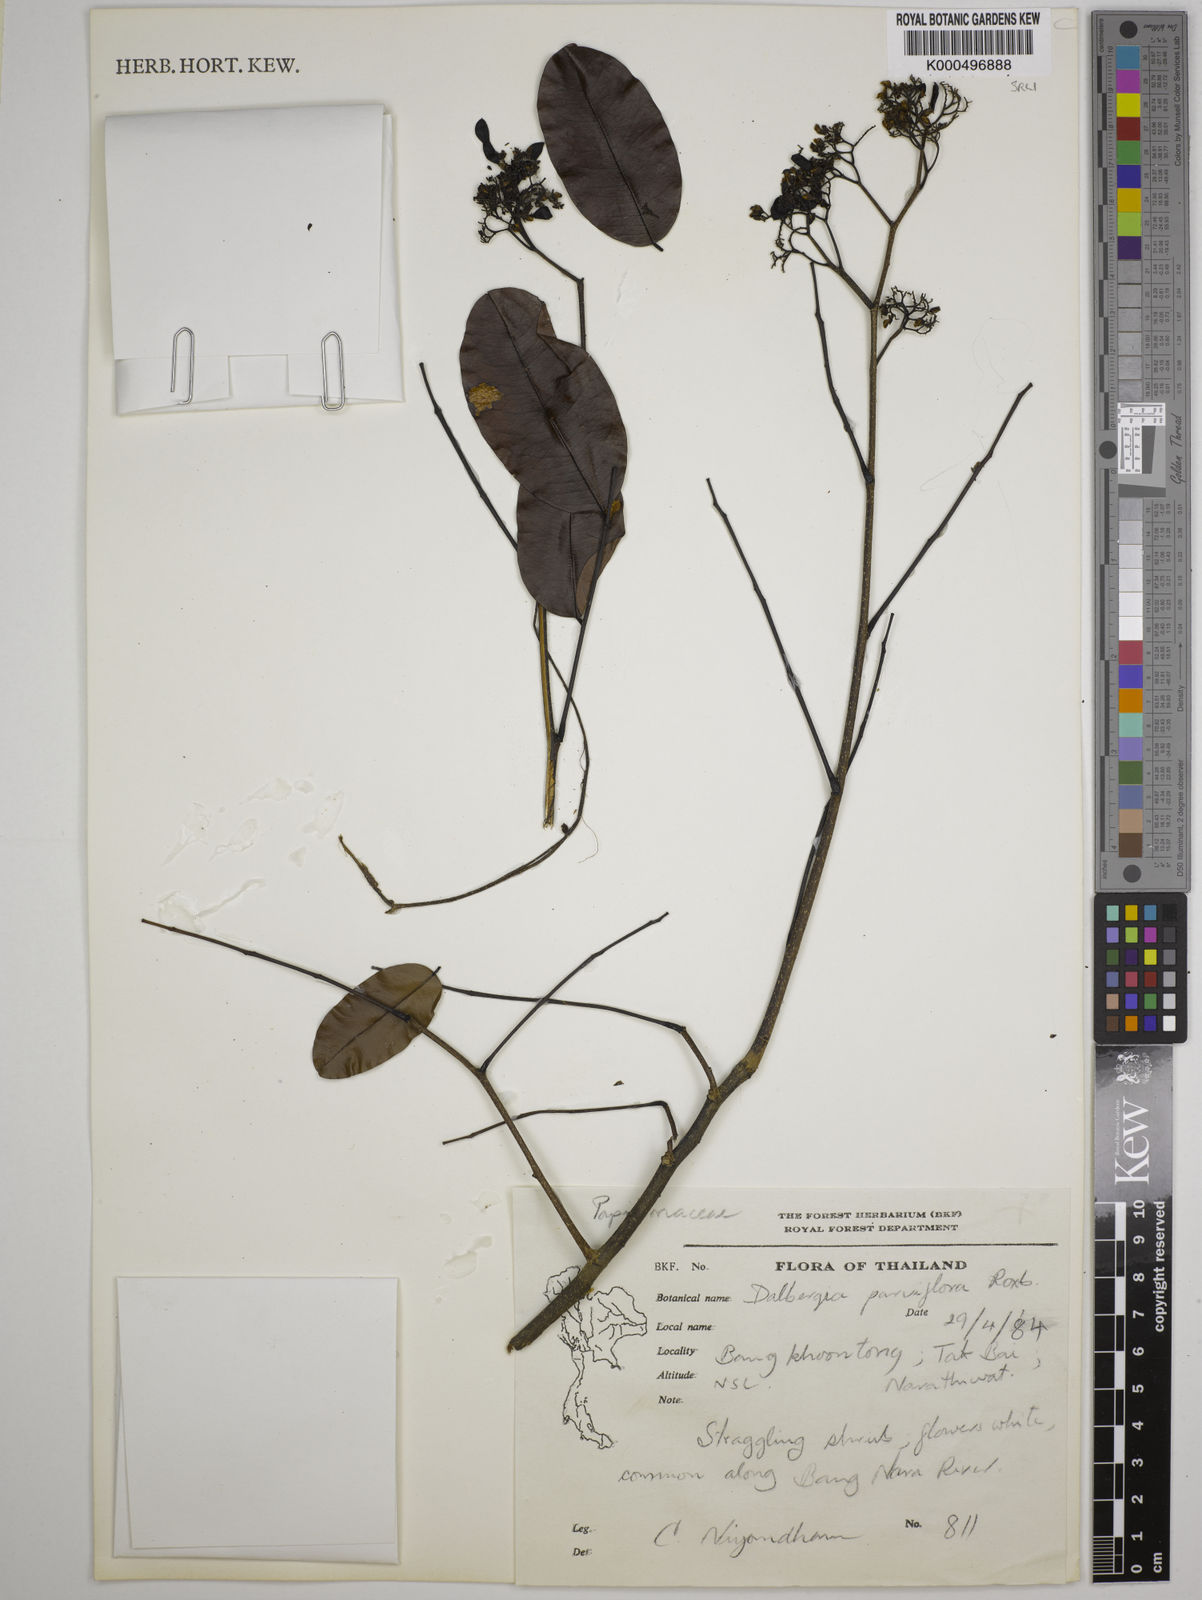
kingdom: Plantae
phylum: Tracheophyta
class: Magnoliopsida
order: Fabales
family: Fabaceae
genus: Dalbergia
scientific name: Dalbergia parviflora
